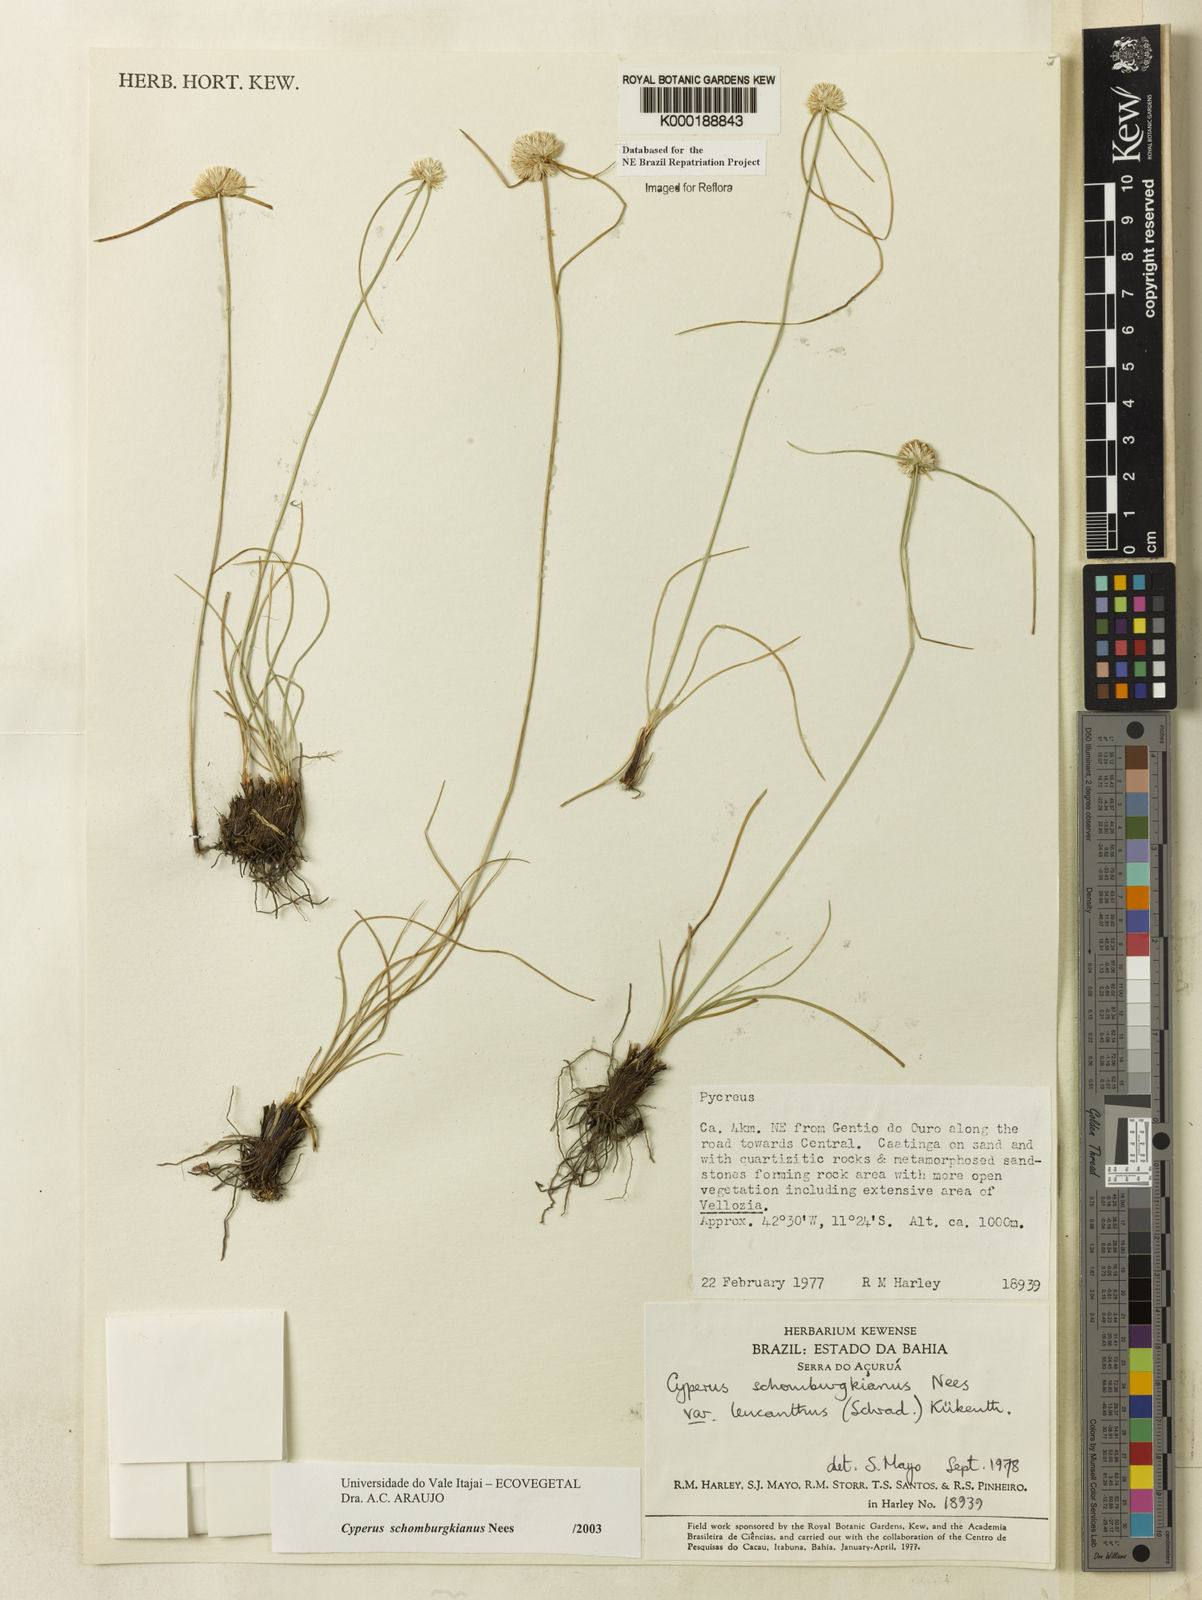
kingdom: Plantae
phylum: Tracheophyta
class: Liliopsida
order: Poales
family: Cyperaceae
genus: Cyperus
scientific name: Cyperus schomburgkianus
